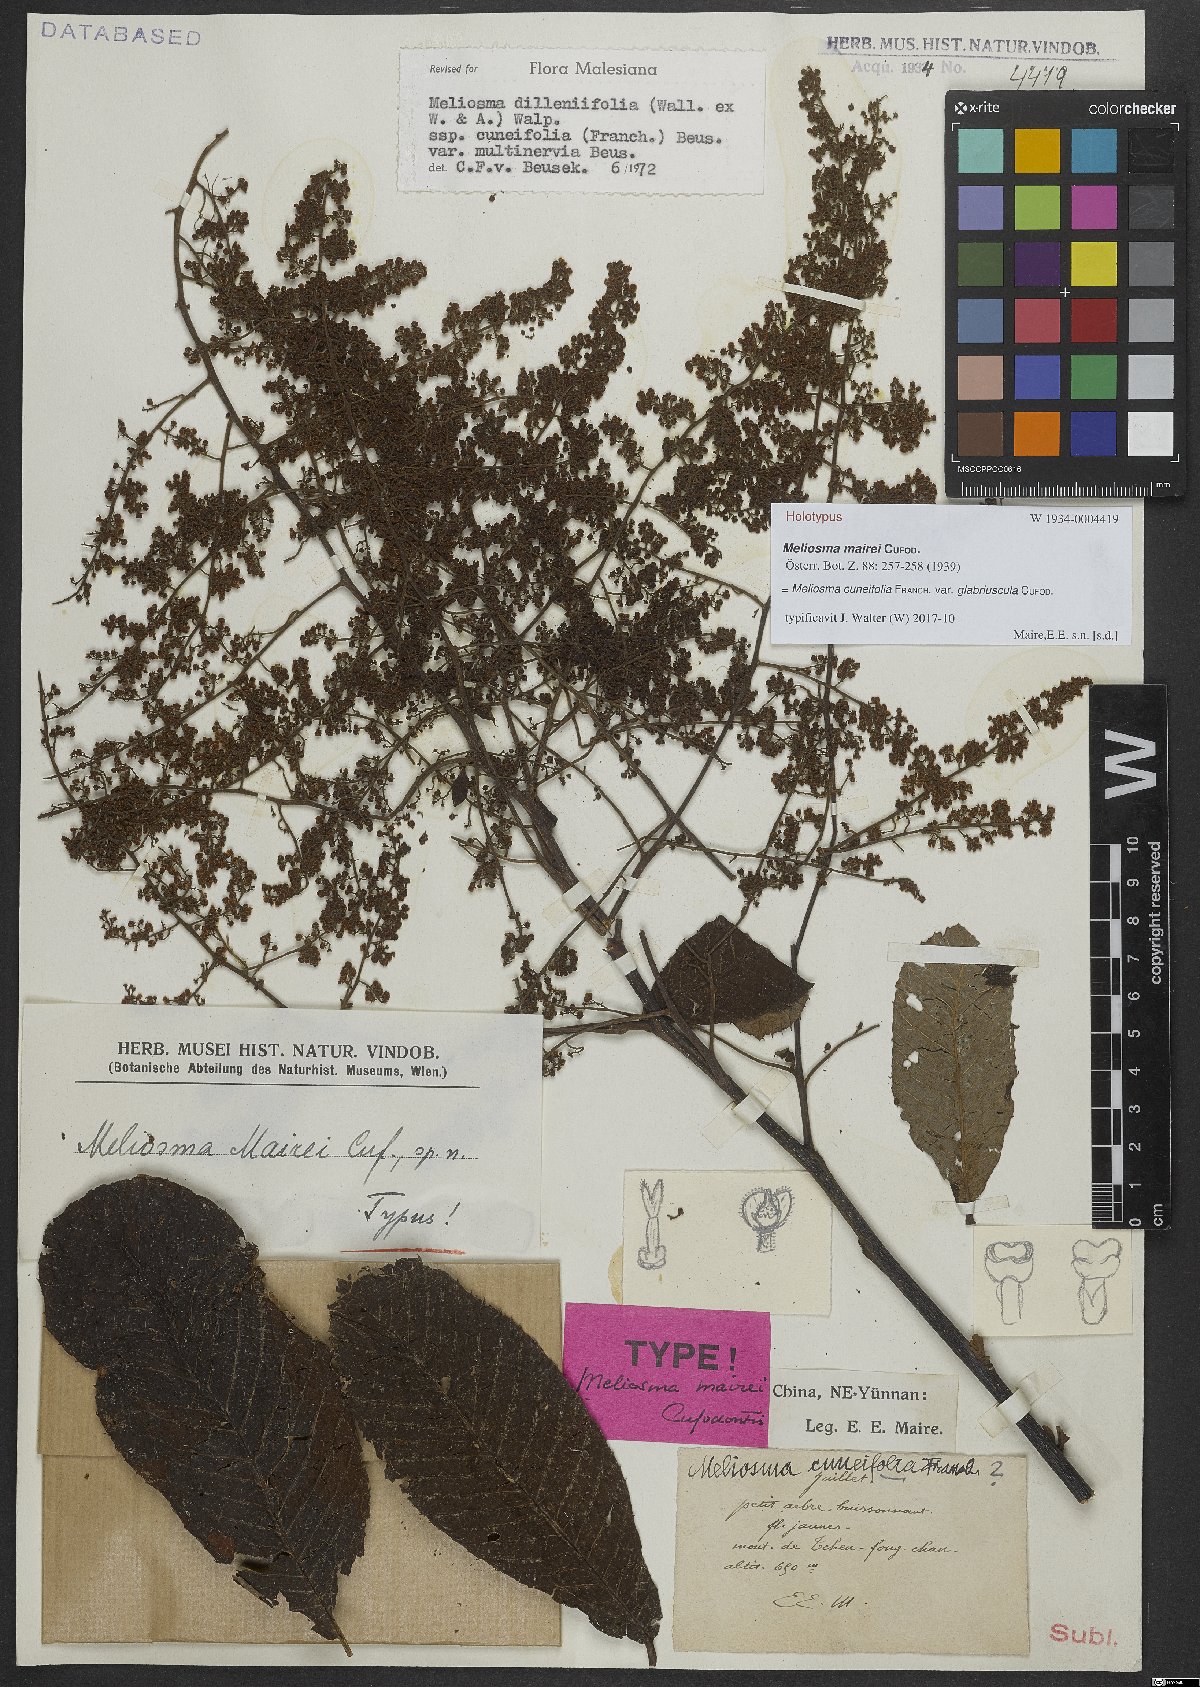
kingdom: Plantae
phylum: Tracheophyta
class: Magnoliopsida
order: Proteales
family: Sabiaceae
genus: Meliosma
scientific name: Meliosma cuneifolia
